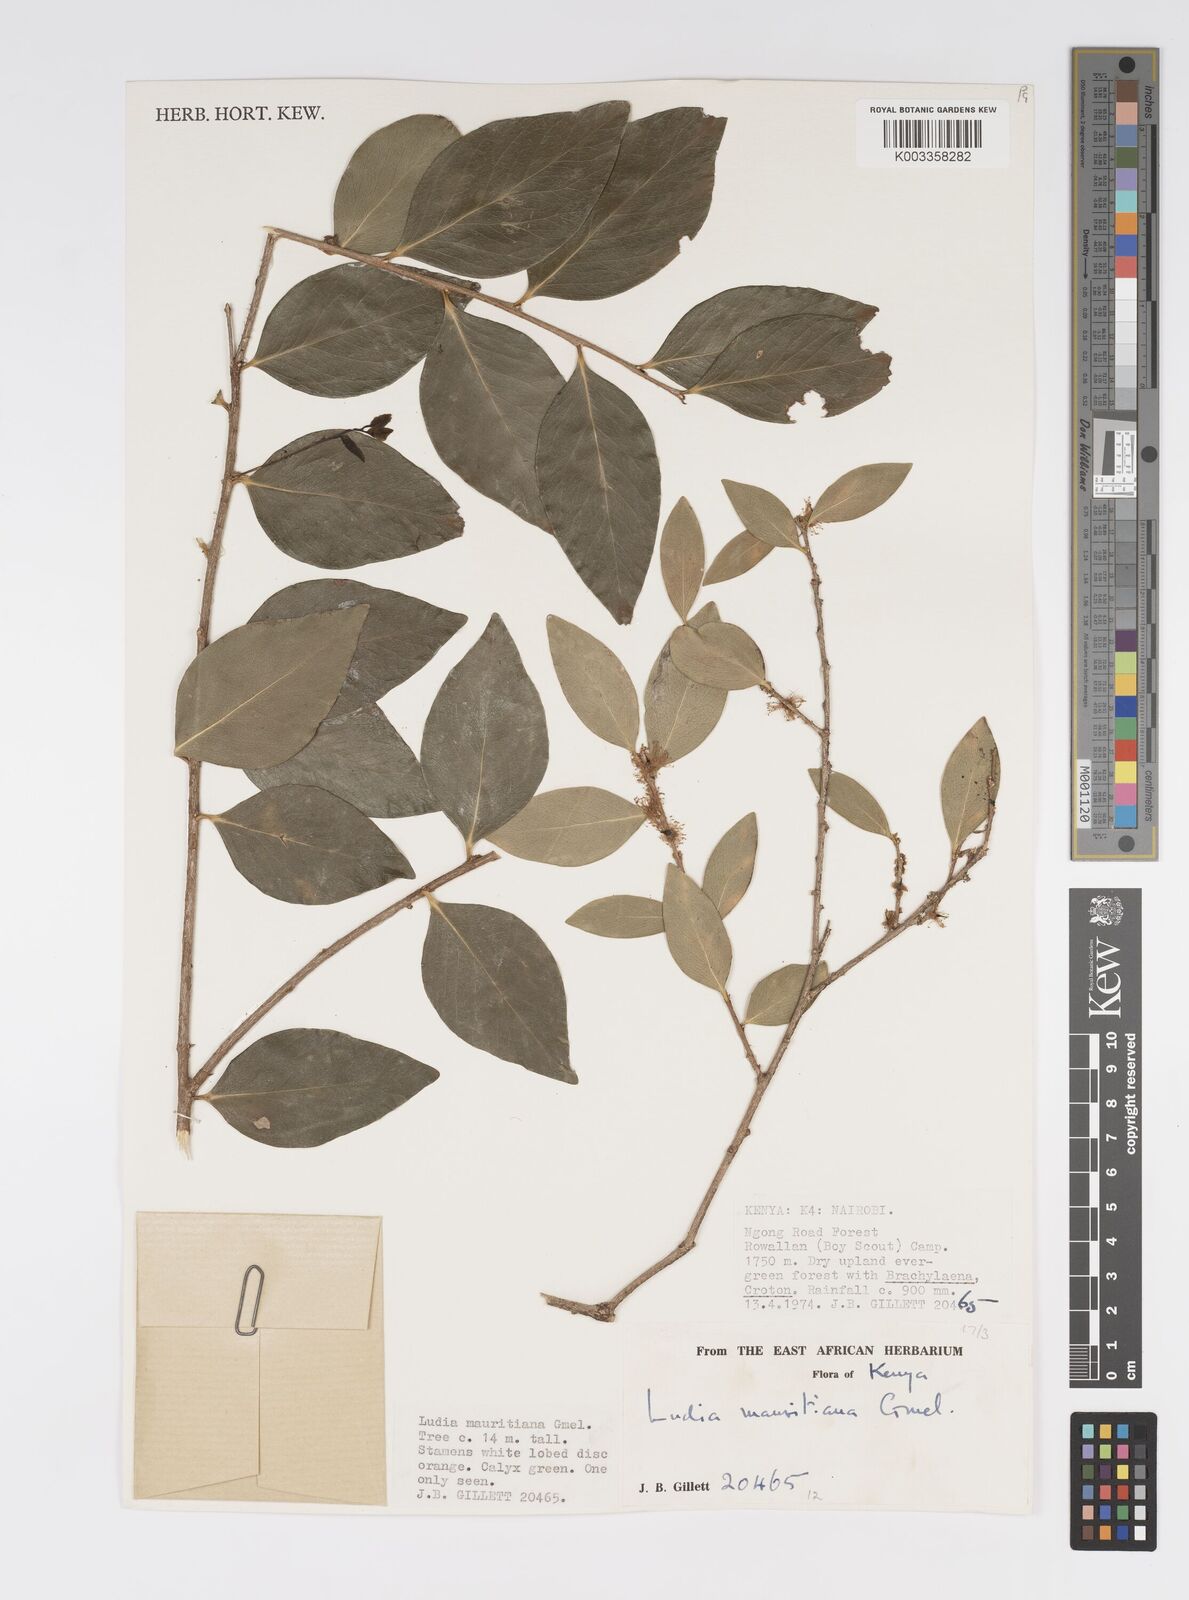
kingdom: Plantae
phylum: Tracheophyta
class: Magnoliopsida
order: Malpighiales
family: Salicaceae
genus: Ludia
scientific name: Ludia mauritiana
